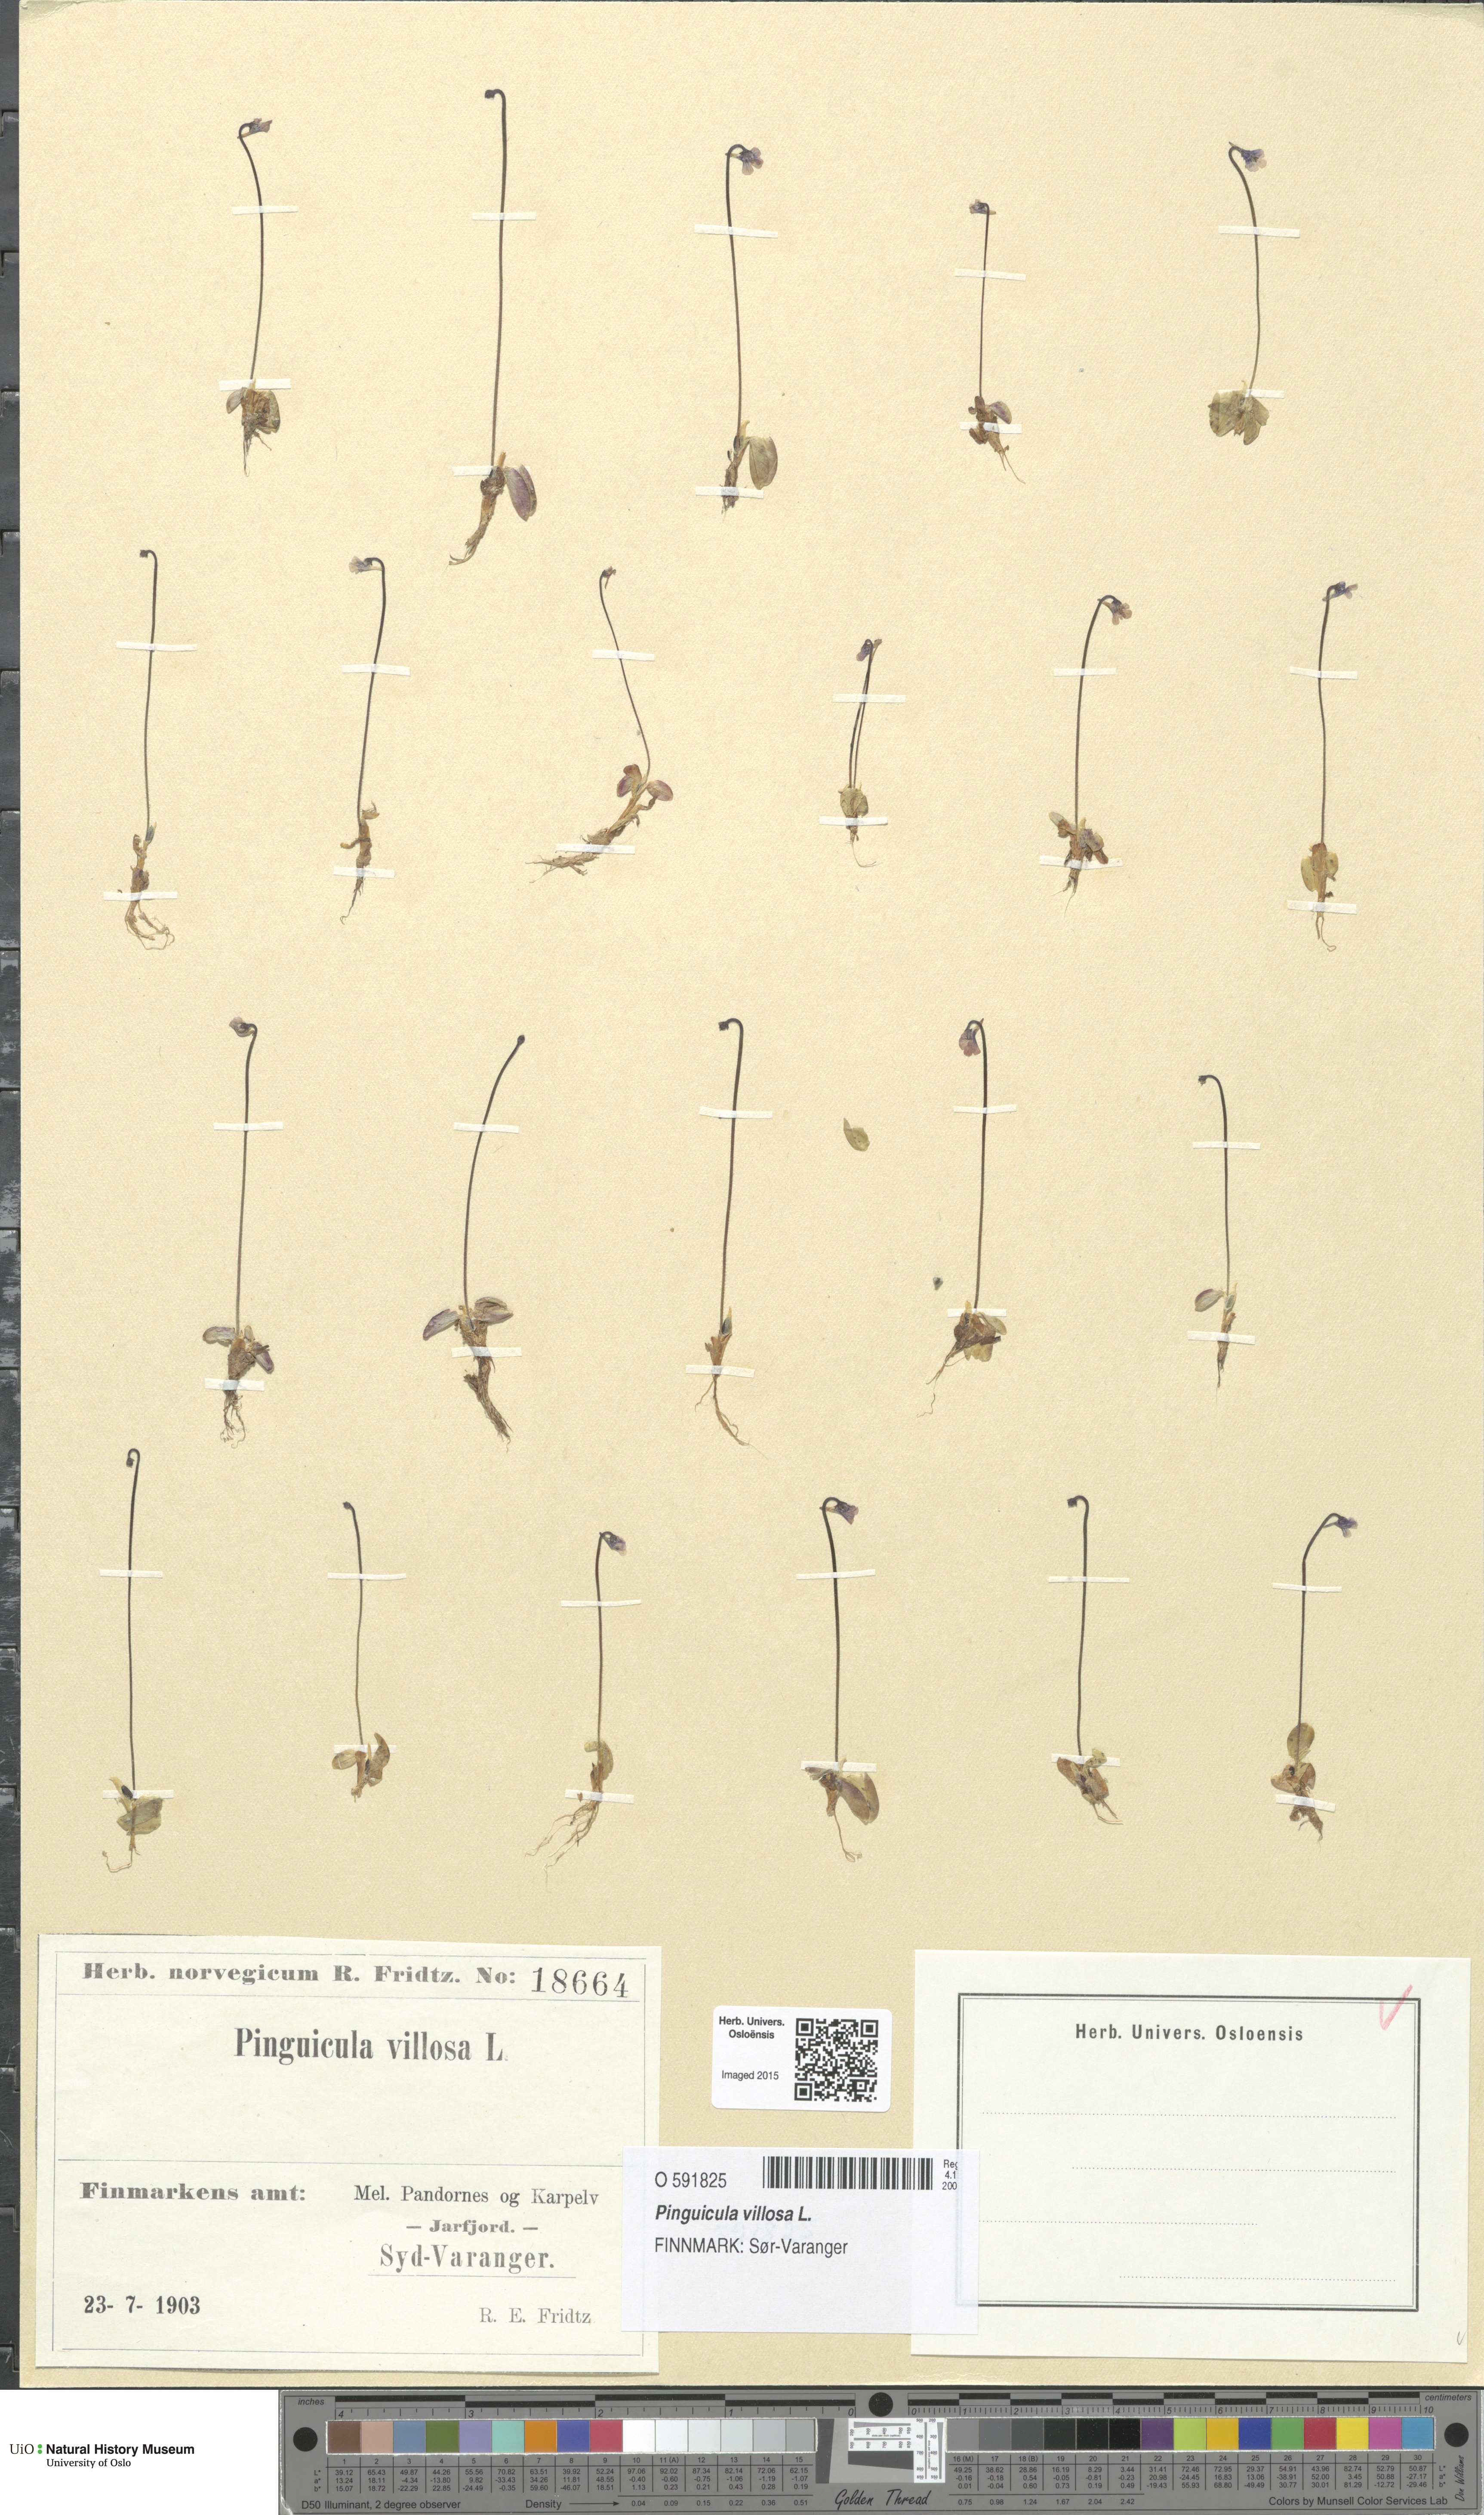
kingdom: Plantae
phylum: Tracheophyta
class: Magnoliopsida
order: Lamiales
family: Lentibulariaceae
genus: Pinguicula
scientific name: Pinguicula villosa
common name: Hairy butterwort
